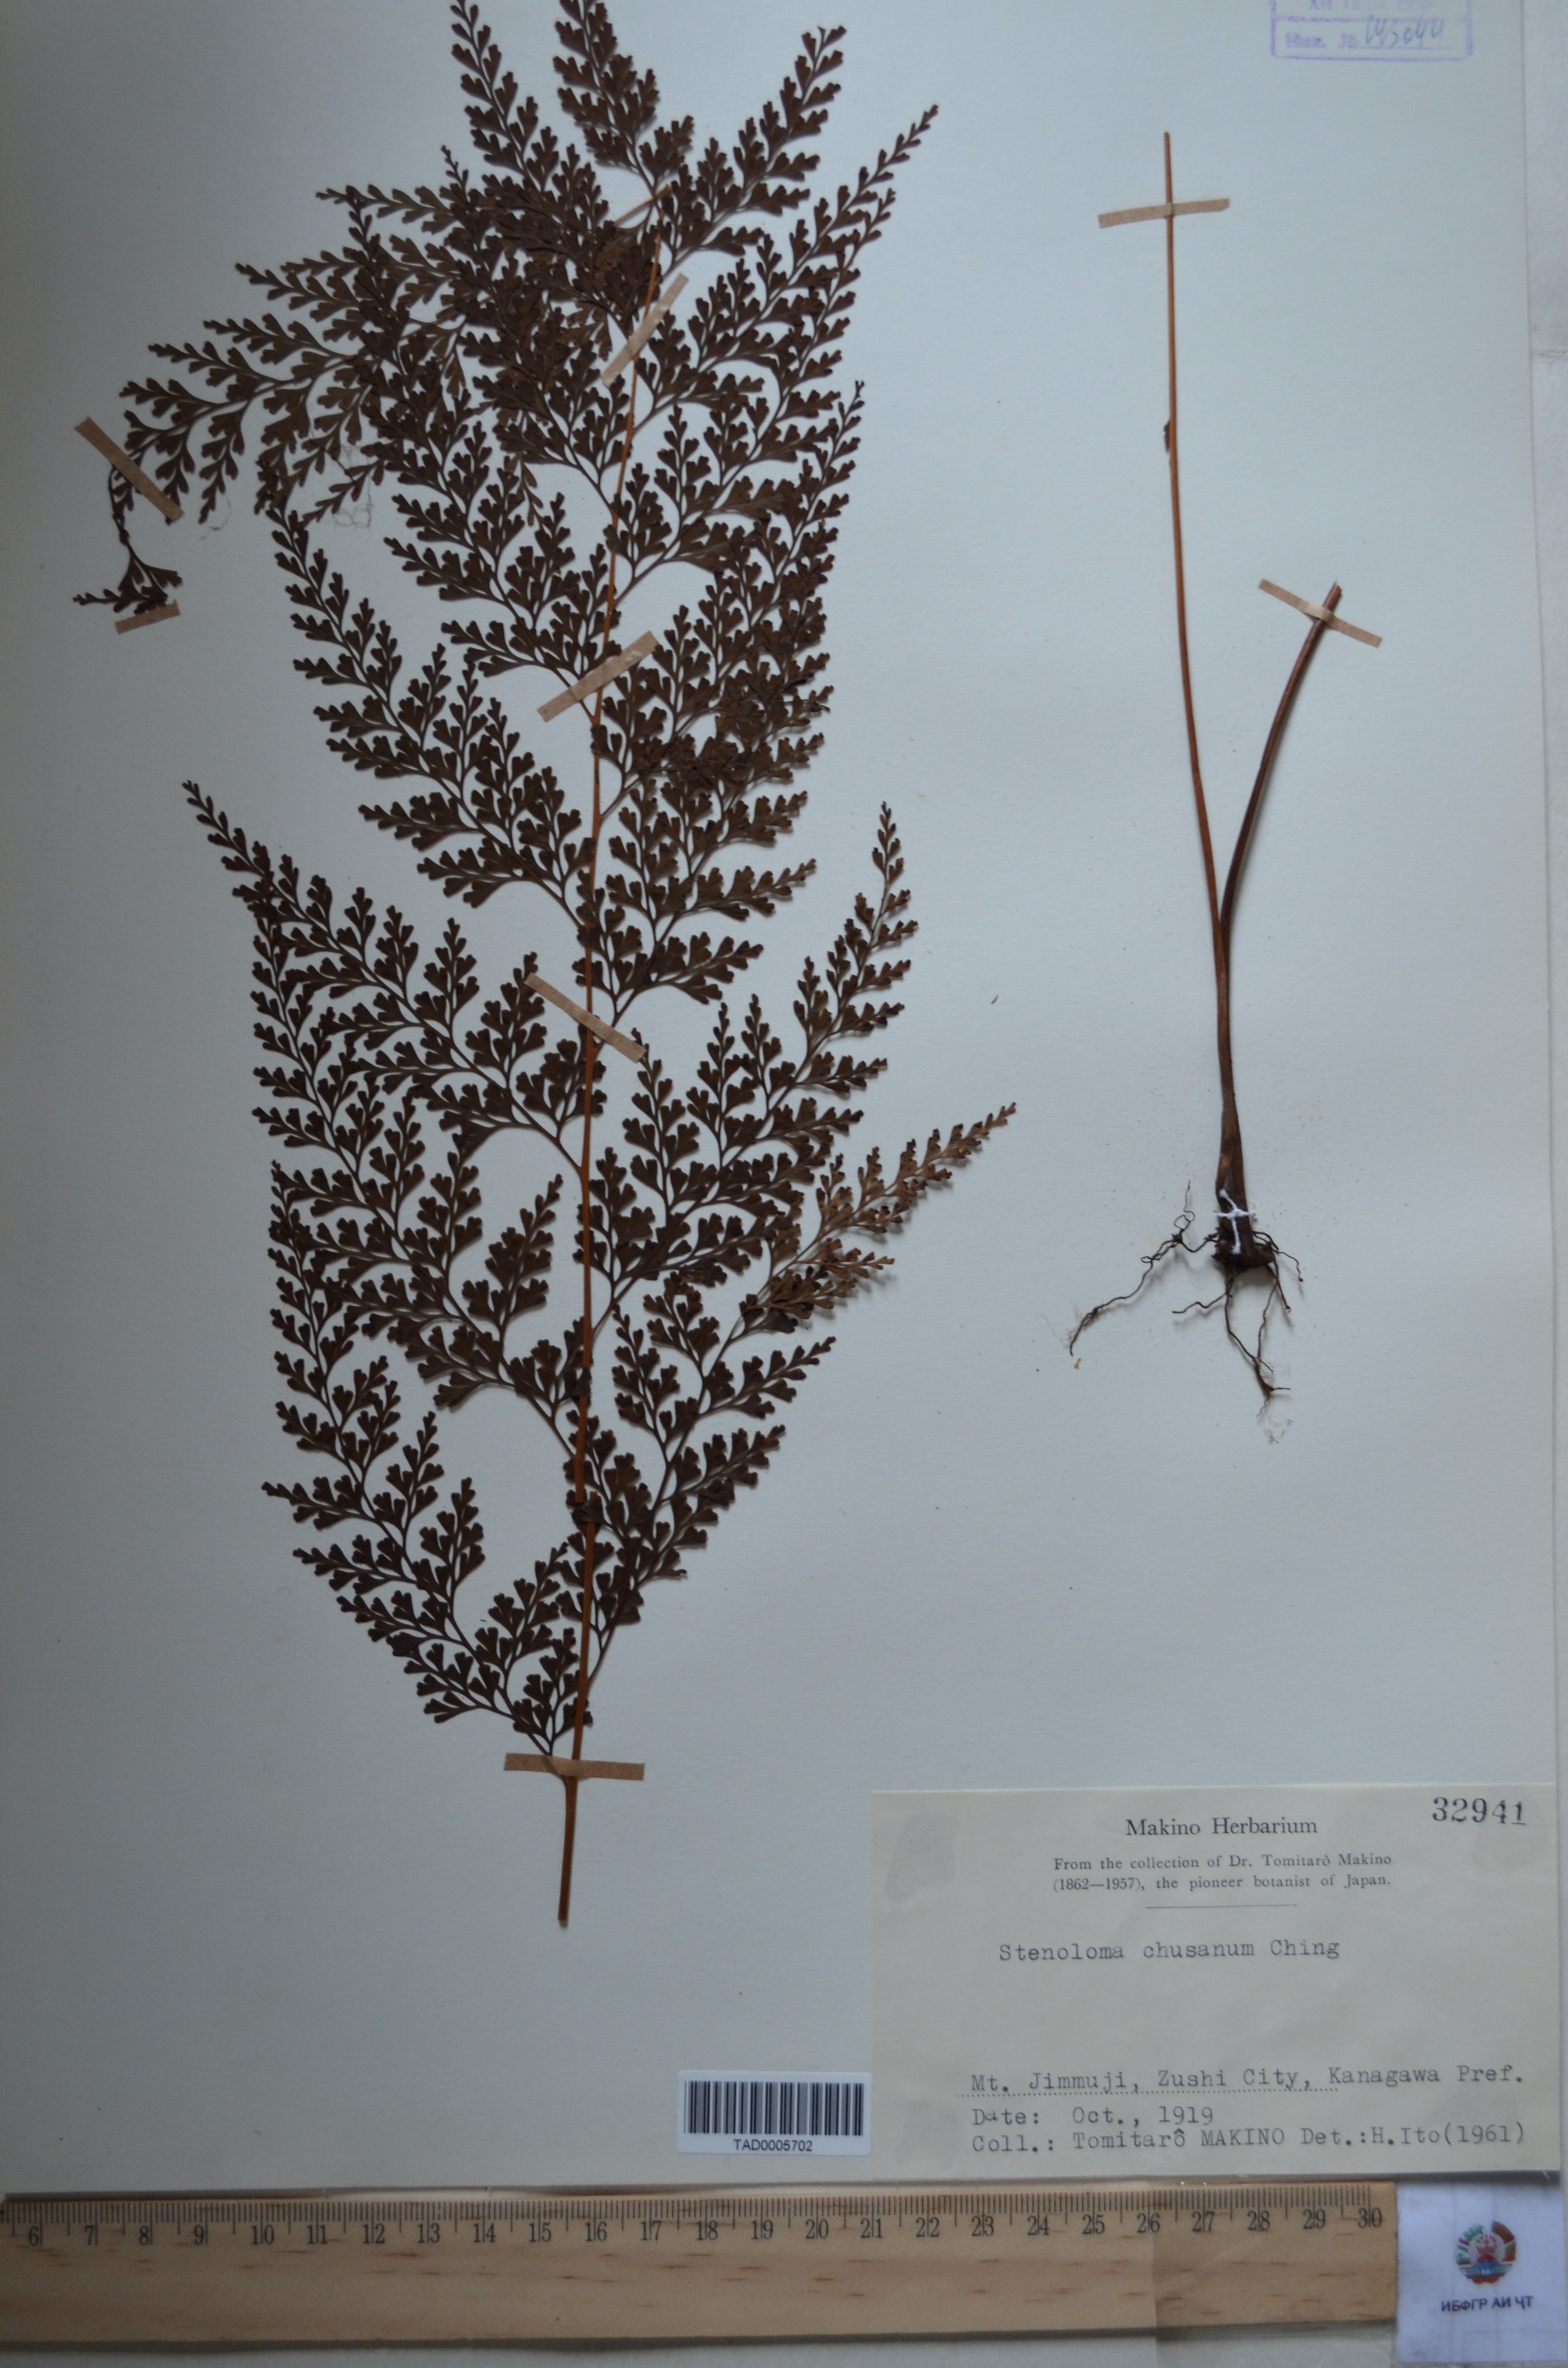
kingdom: Plantae
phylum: Tracheophyta
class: Polypodiopsida
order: Polypodiales
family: Lindsaeaceae
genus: Odontosoria
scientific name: Odontosoria chinensis
